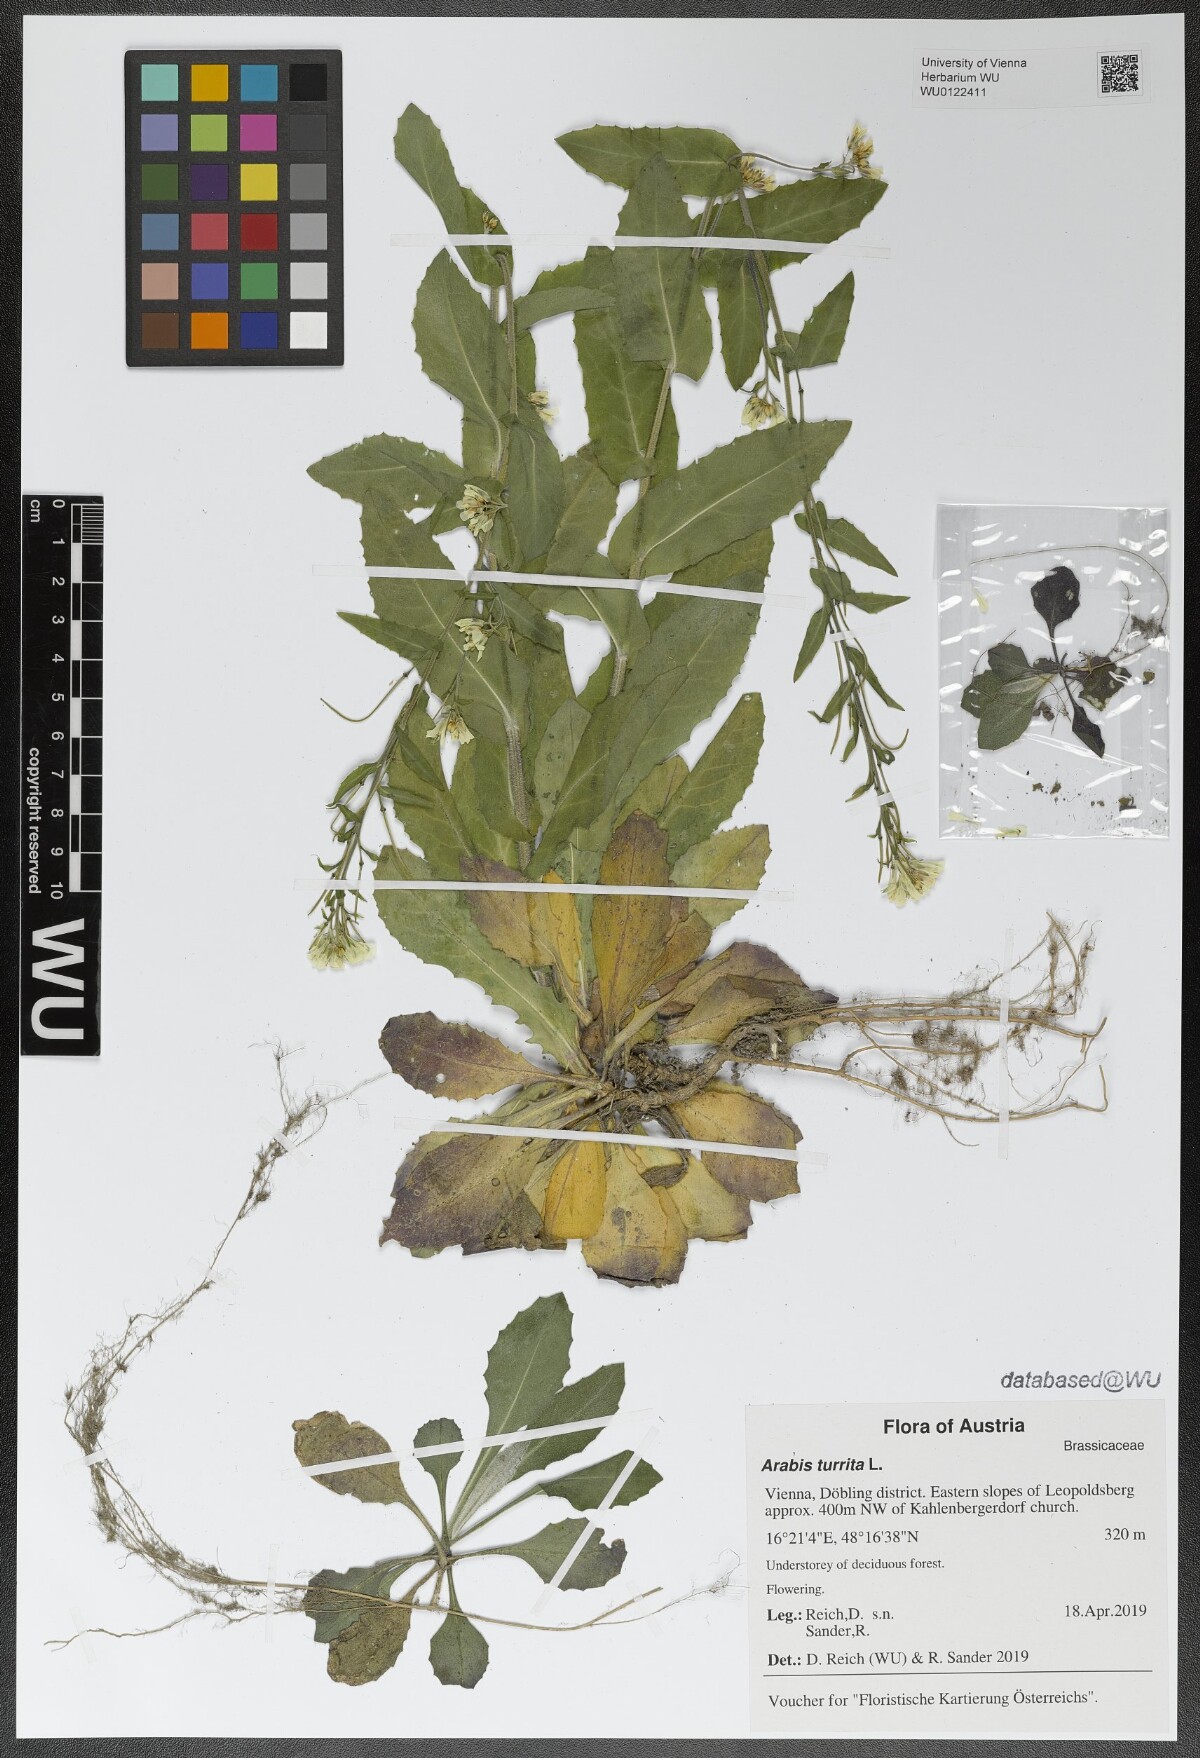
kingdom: Plantae
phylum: Tracheophyta
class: Magnoliopsida
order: Brassicales
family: Brassicaceae
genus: Pseudoturritis
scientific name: Pseudoturritis turrita
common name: Tower cress
